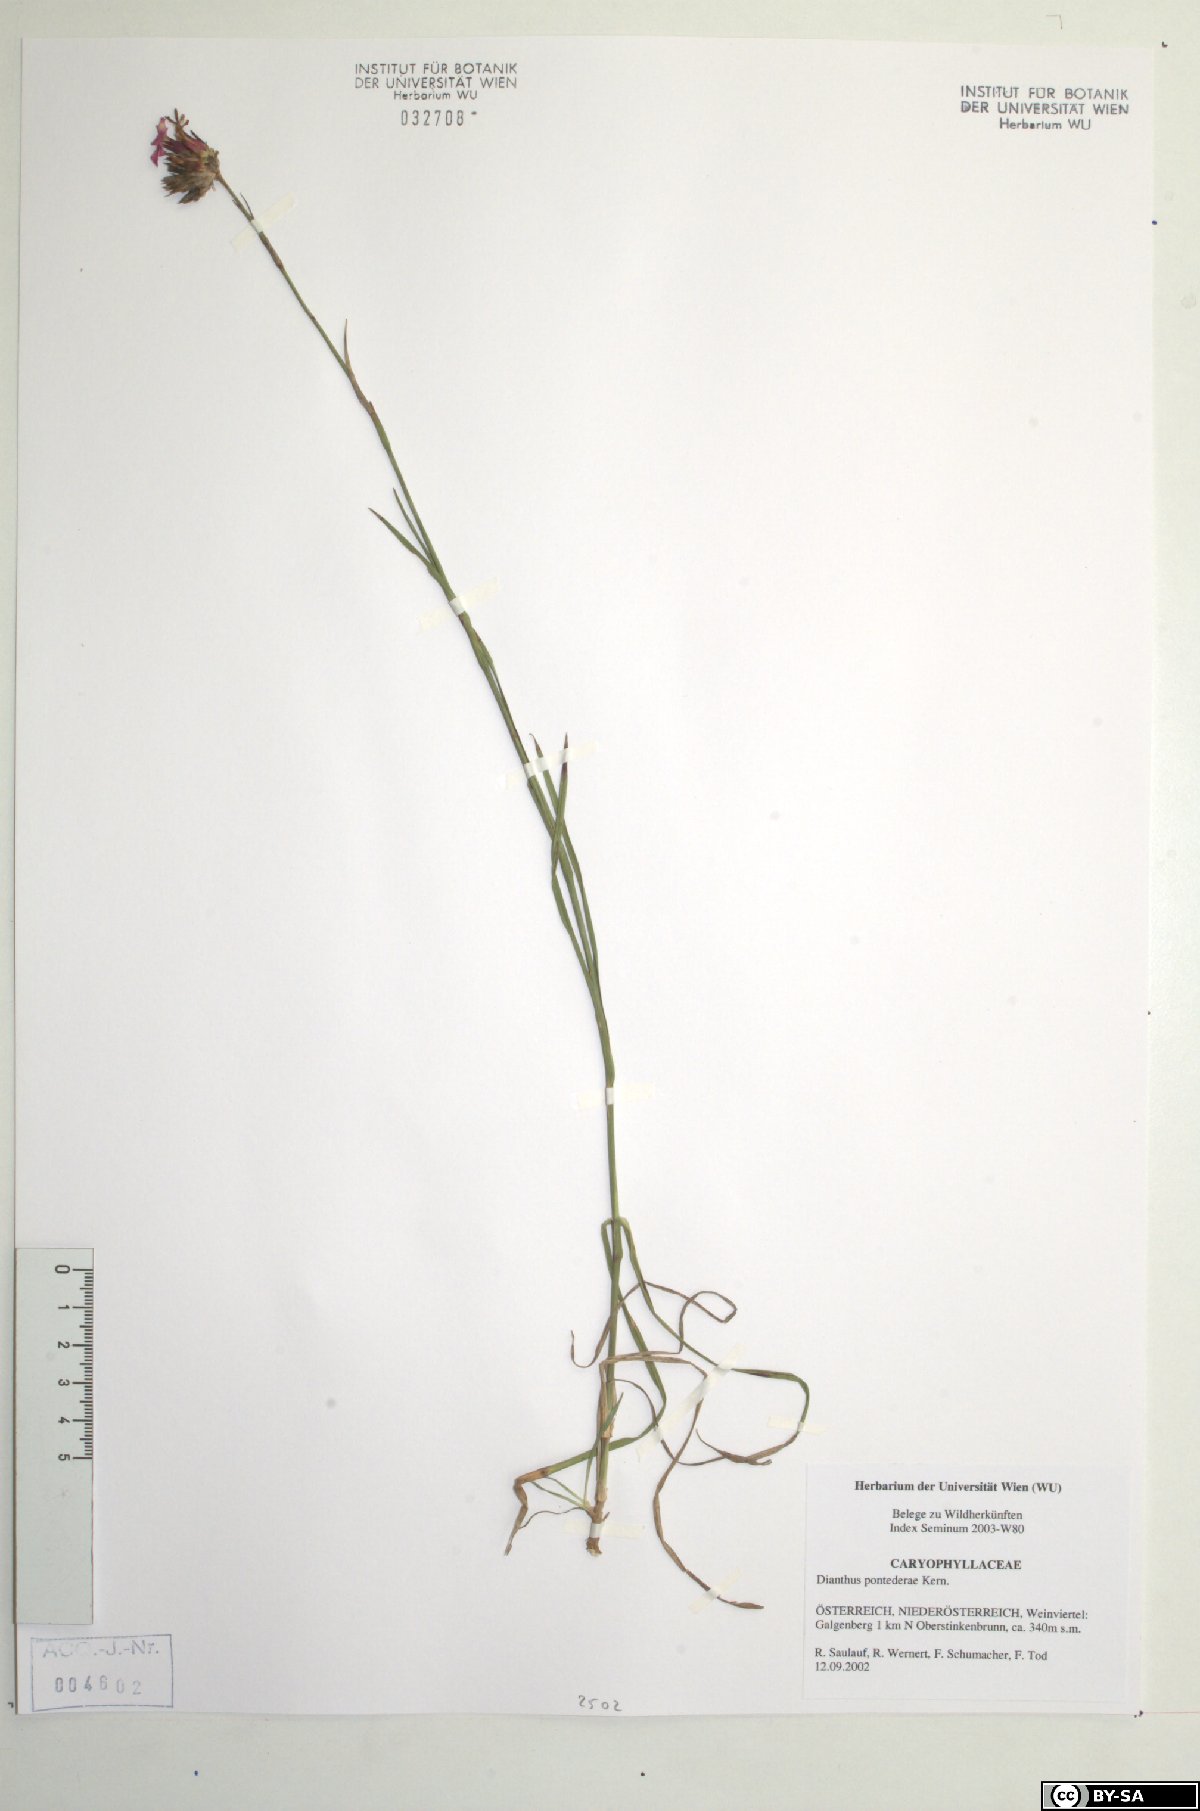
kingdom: Plantae
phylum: Tracheophyta
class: Magnoliopsida
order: Caryophyllales
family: Caryophyllaceae
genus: Dianthus
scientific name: Dianthus pontederae
